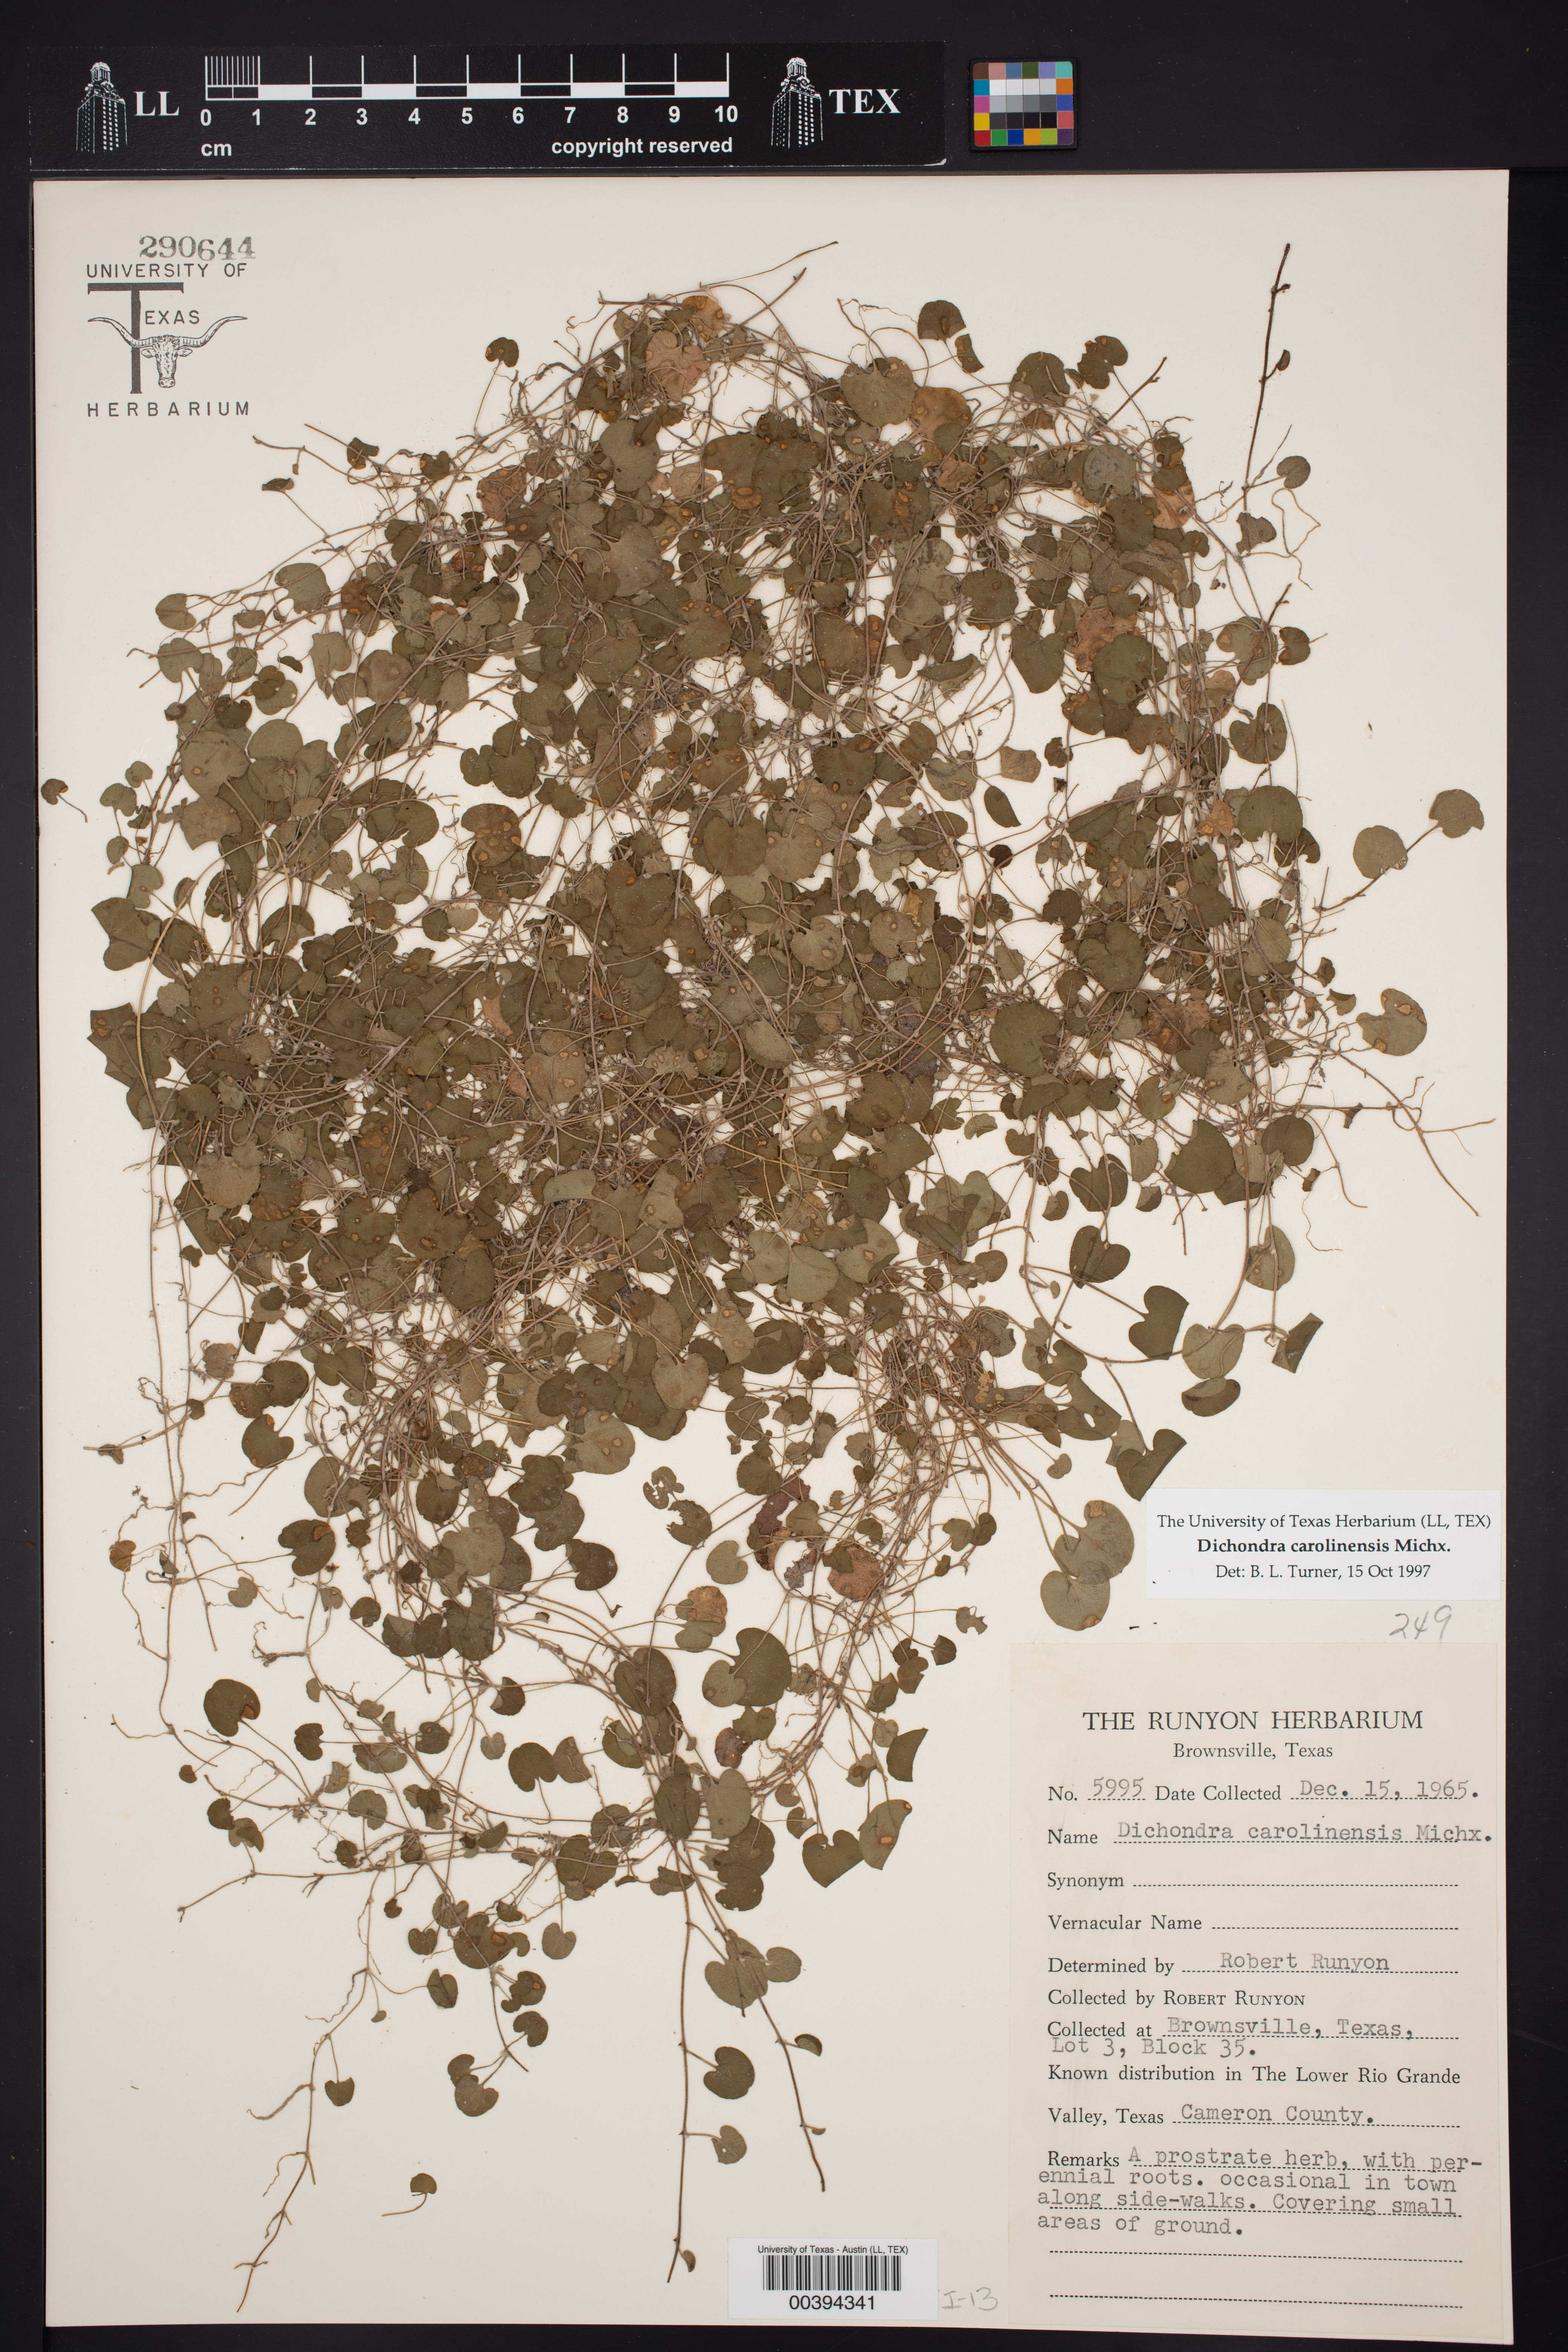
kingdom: Plantae
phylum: Tracheophyta
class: Magnoliopsida
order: Solanales
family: Convolvulaceae
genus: Dichondra
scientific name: Dichondra carolinensis
